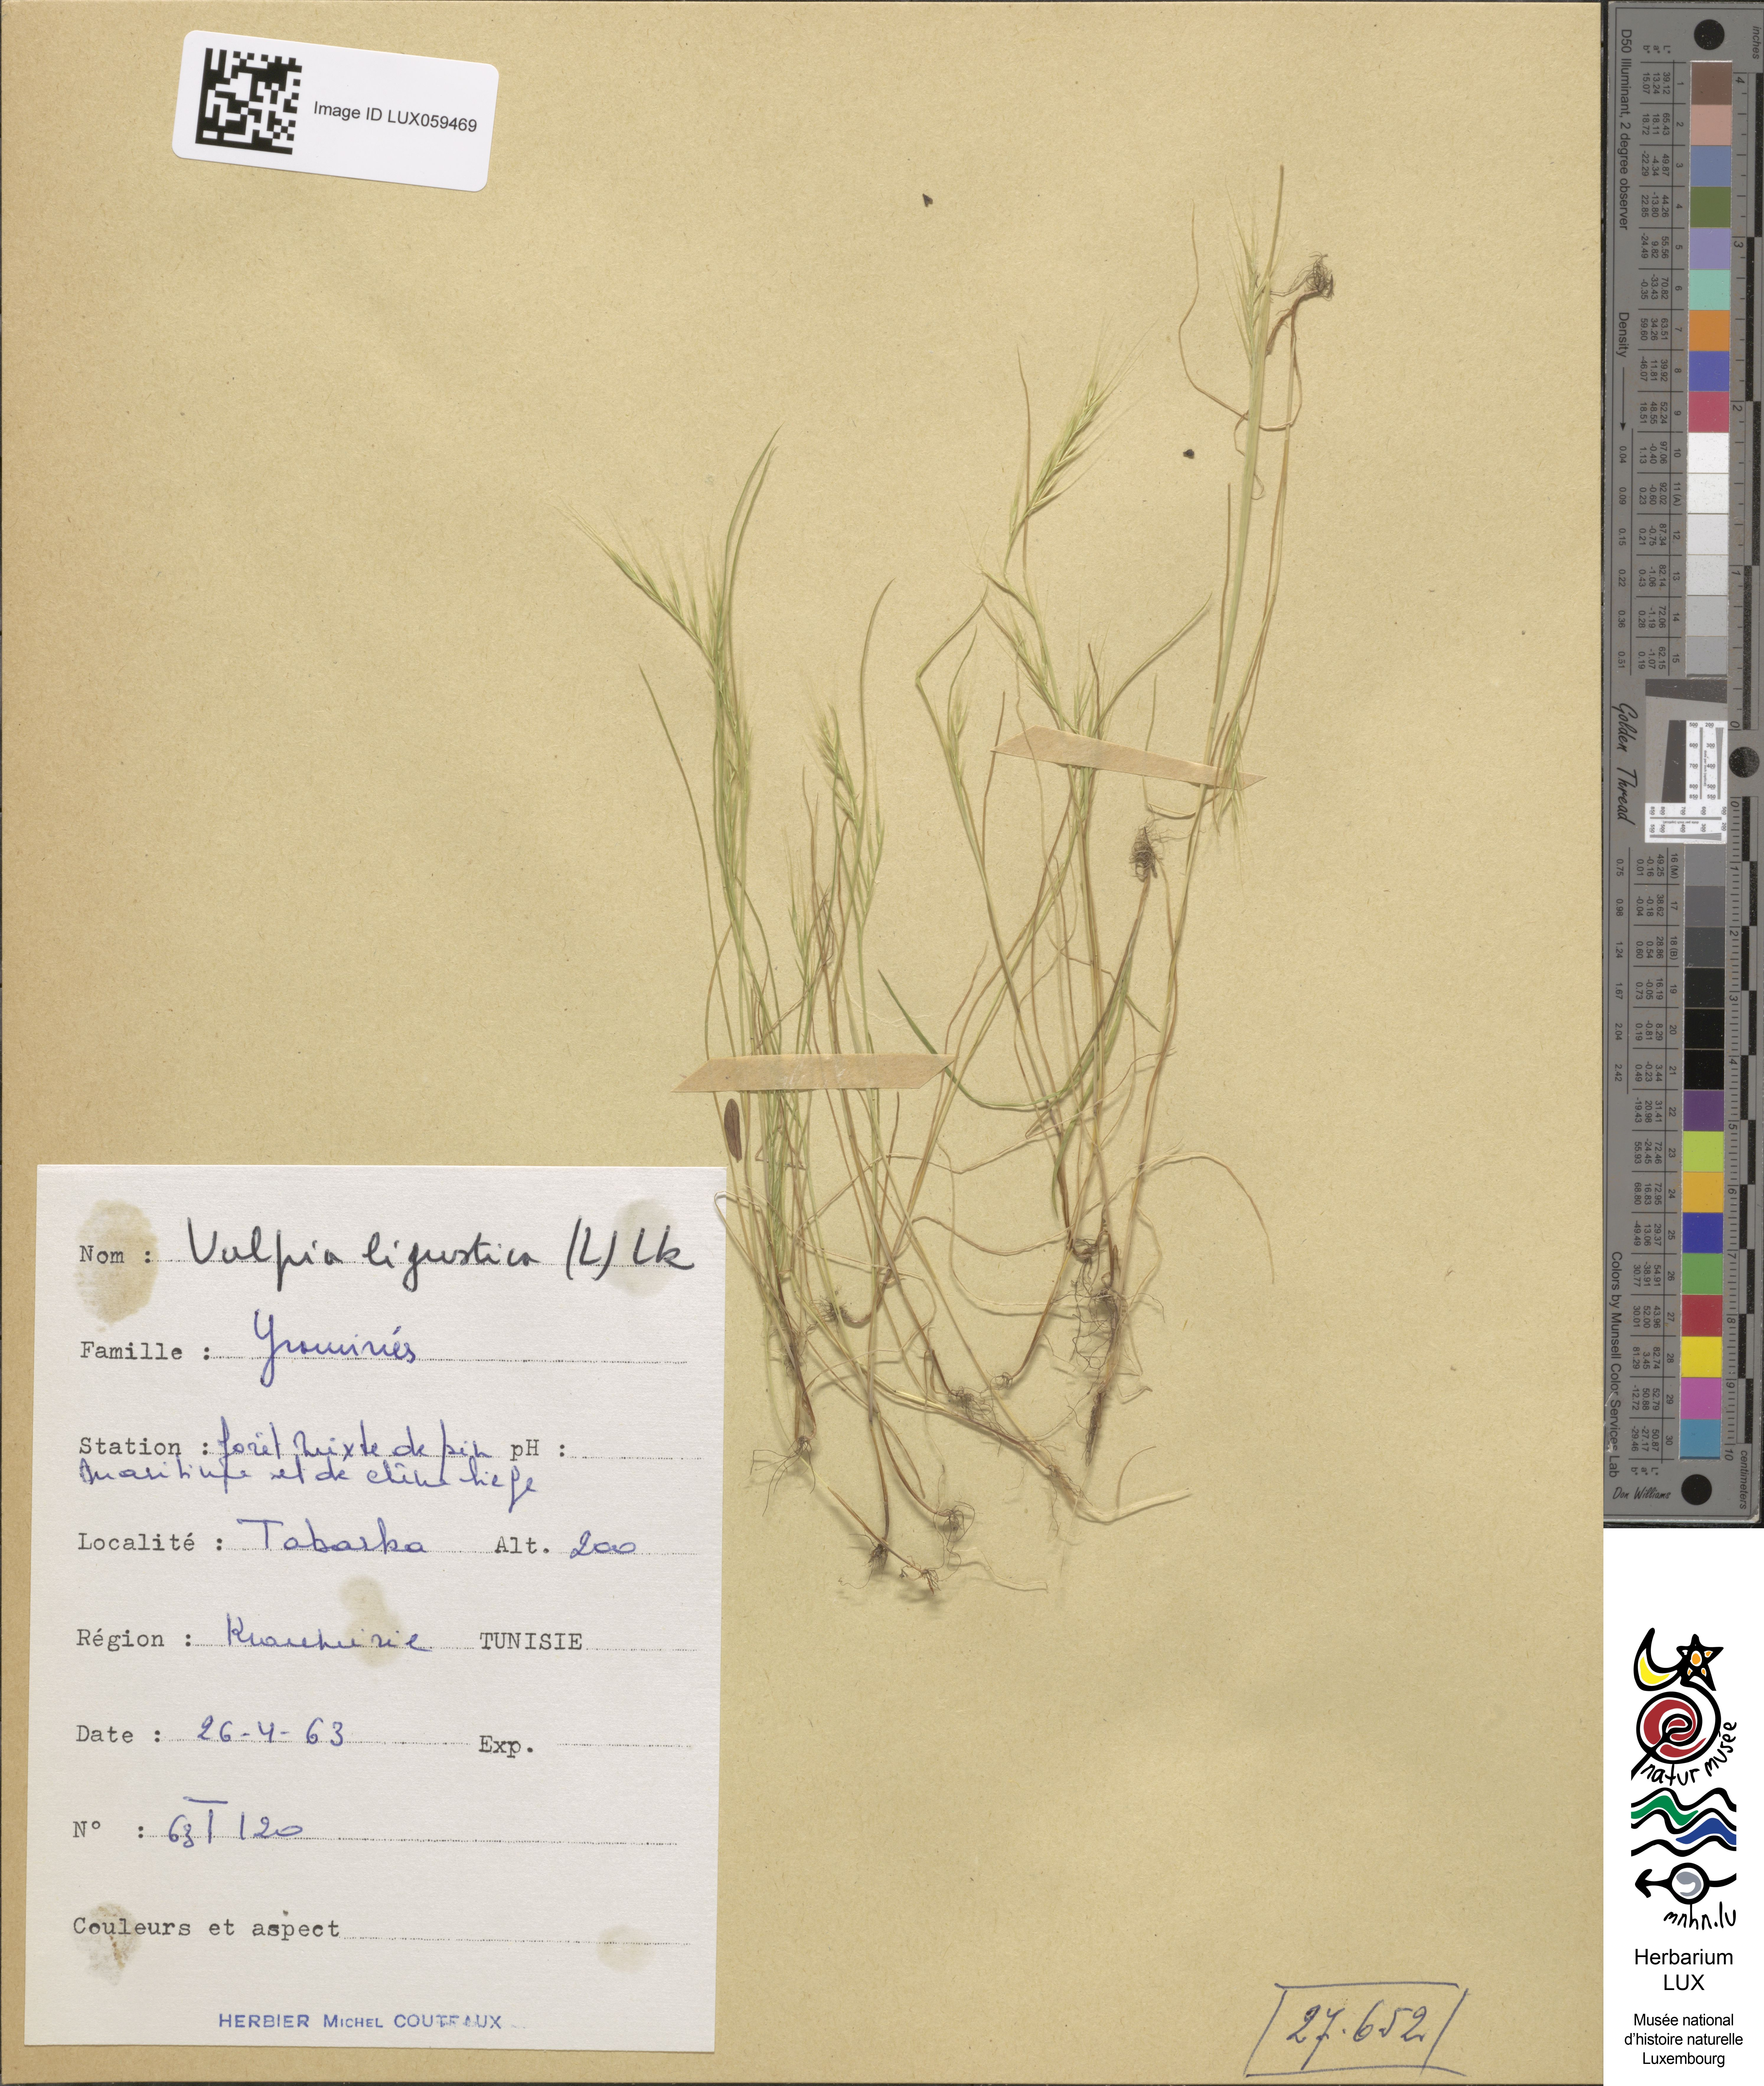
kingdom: Plantae
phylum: Tracheophyta
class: Liliopsida
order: Poales
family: Poaceae
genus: Festuca
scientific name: Festuca ligustica
